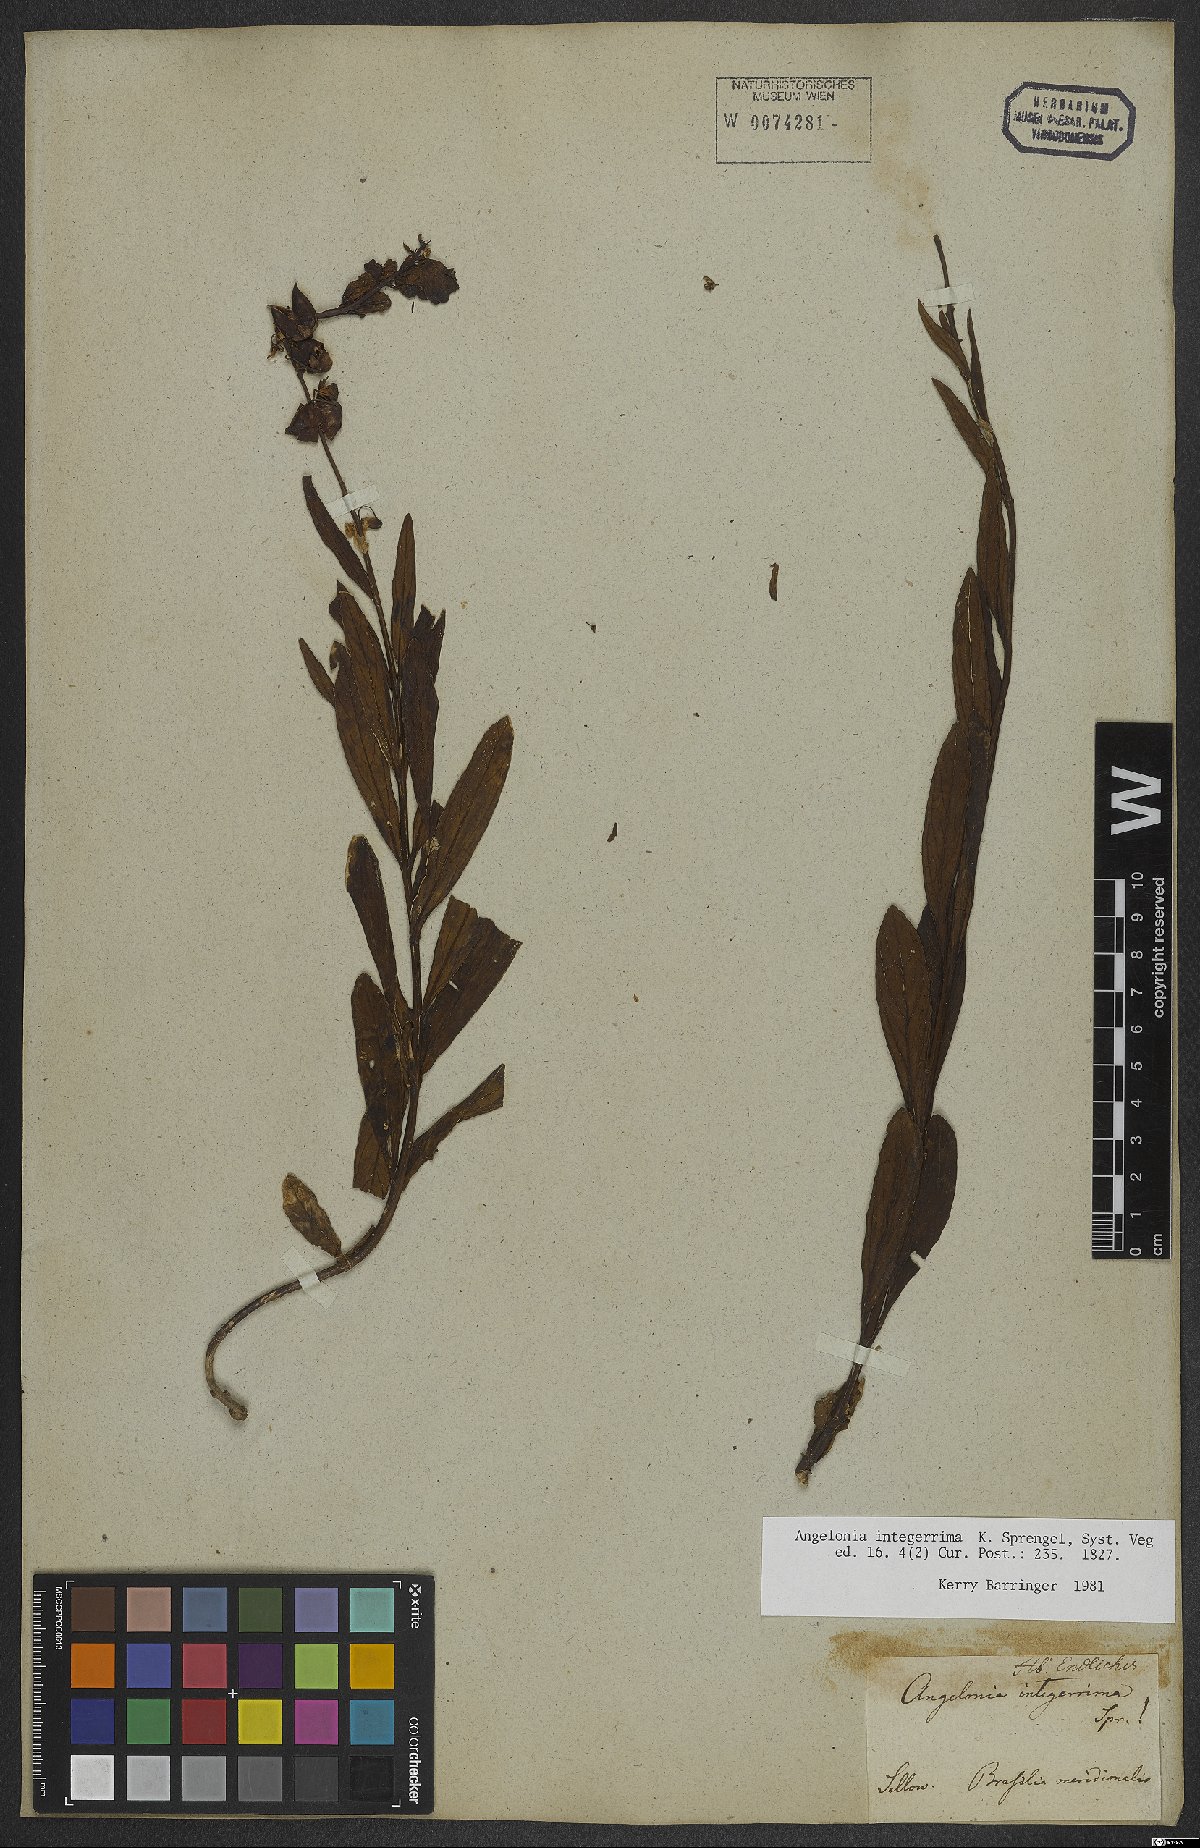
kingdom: Plantae
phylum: Tracheophyta
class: Magnoliopsida
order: Lamiales
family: Plantaginaceae
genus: Angelonia
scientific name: Angelonia integerrima
